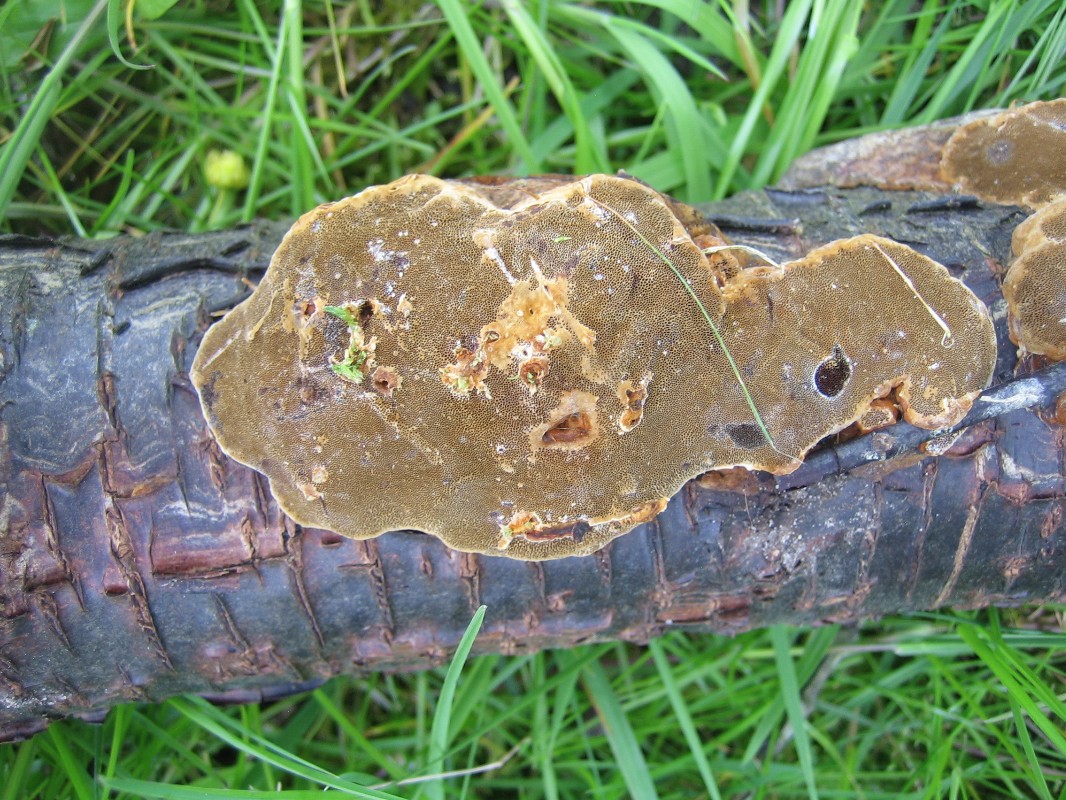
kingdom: Fungi
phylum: Basidiomycota
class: Agaricomycetes
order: Hymenochaetales
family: Hymenochaetaceae
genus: Phellinus
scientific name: Phellinus pomaceus
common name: blomme-ildporesvamp
